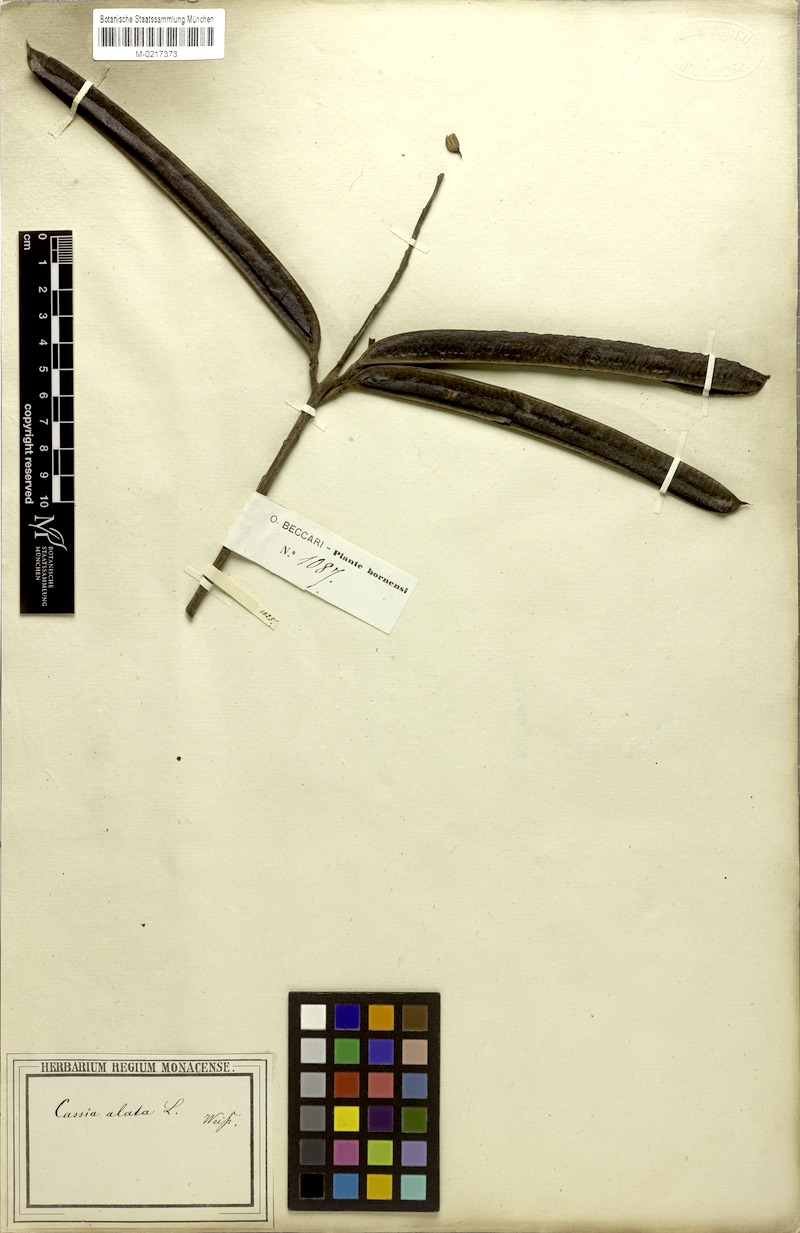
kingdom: Plantae
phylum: Tracheophyta
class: Magnoliopsida
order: Fabales
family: Fabaceae
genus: Senna
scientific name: Senna alata
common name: Emperor's candlesticks
